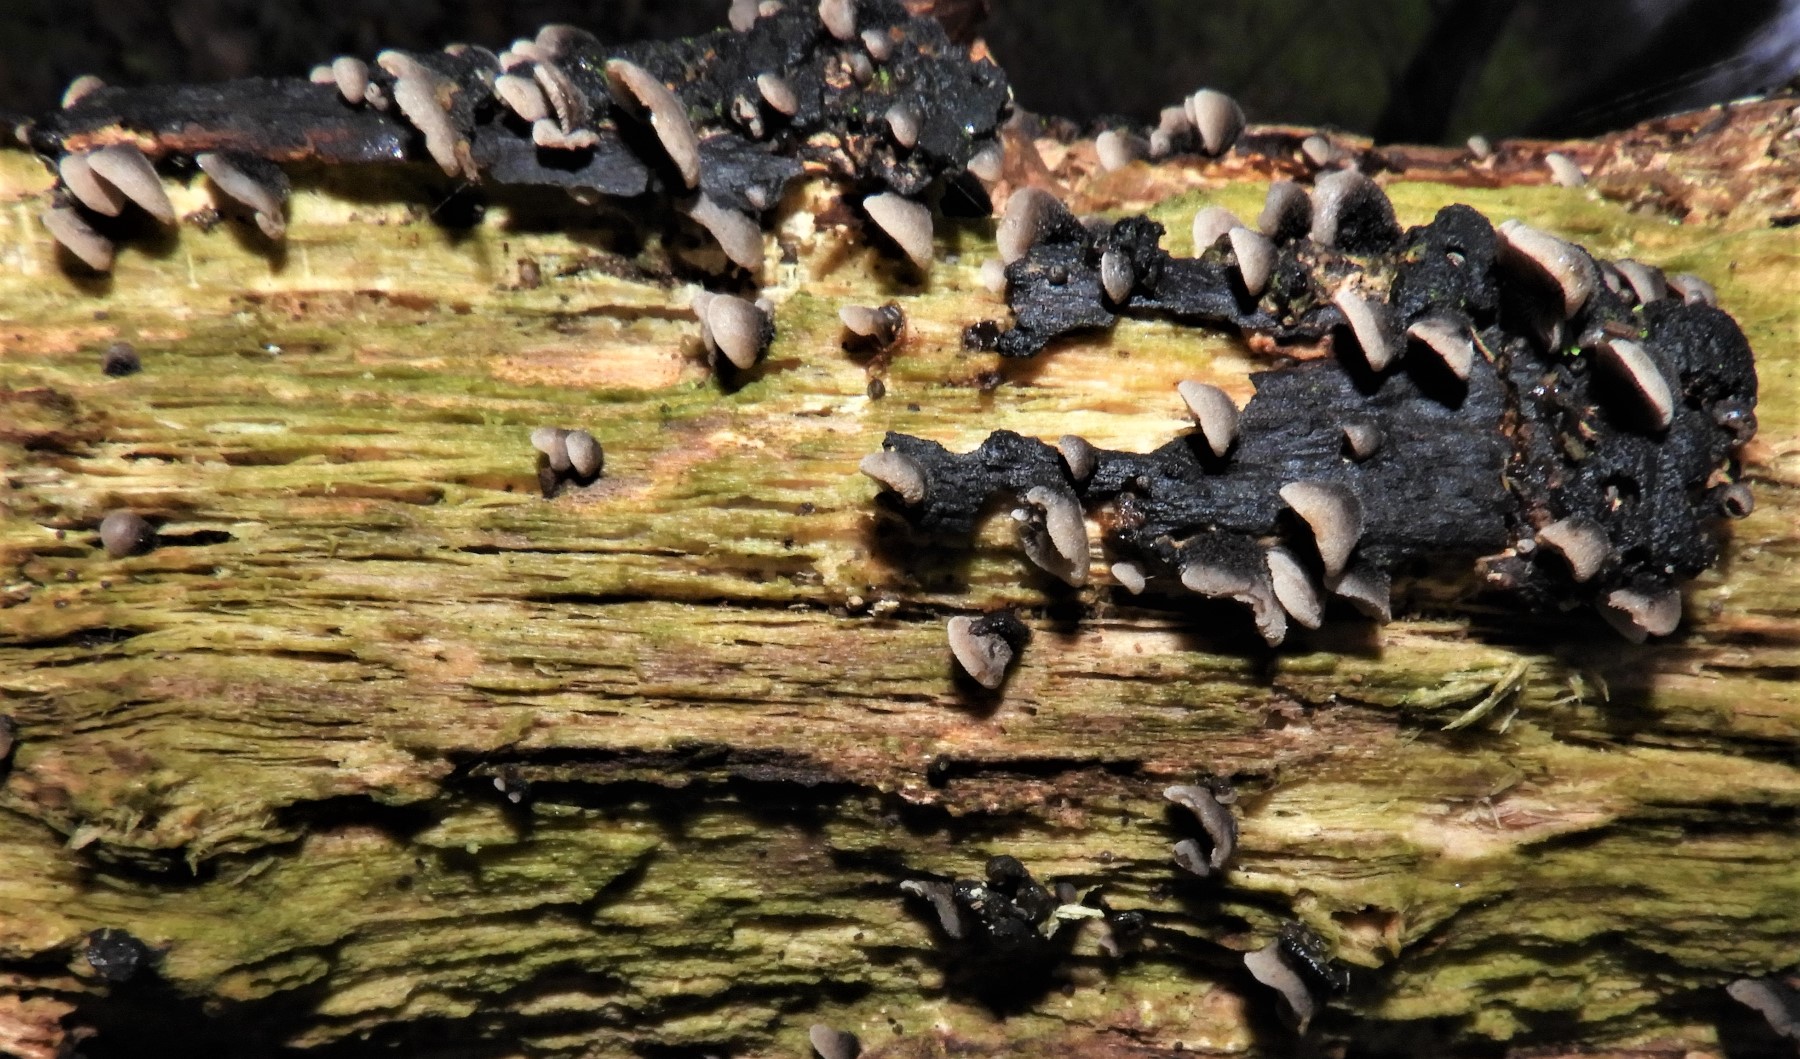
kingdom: Fungi
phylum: Basidiomycota
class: Agaricomycetes
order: Agaricales
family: Pleurotaceae
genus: Resupinatus
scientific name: Resupinatus trichotis
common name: mørkfiltet barkhat
